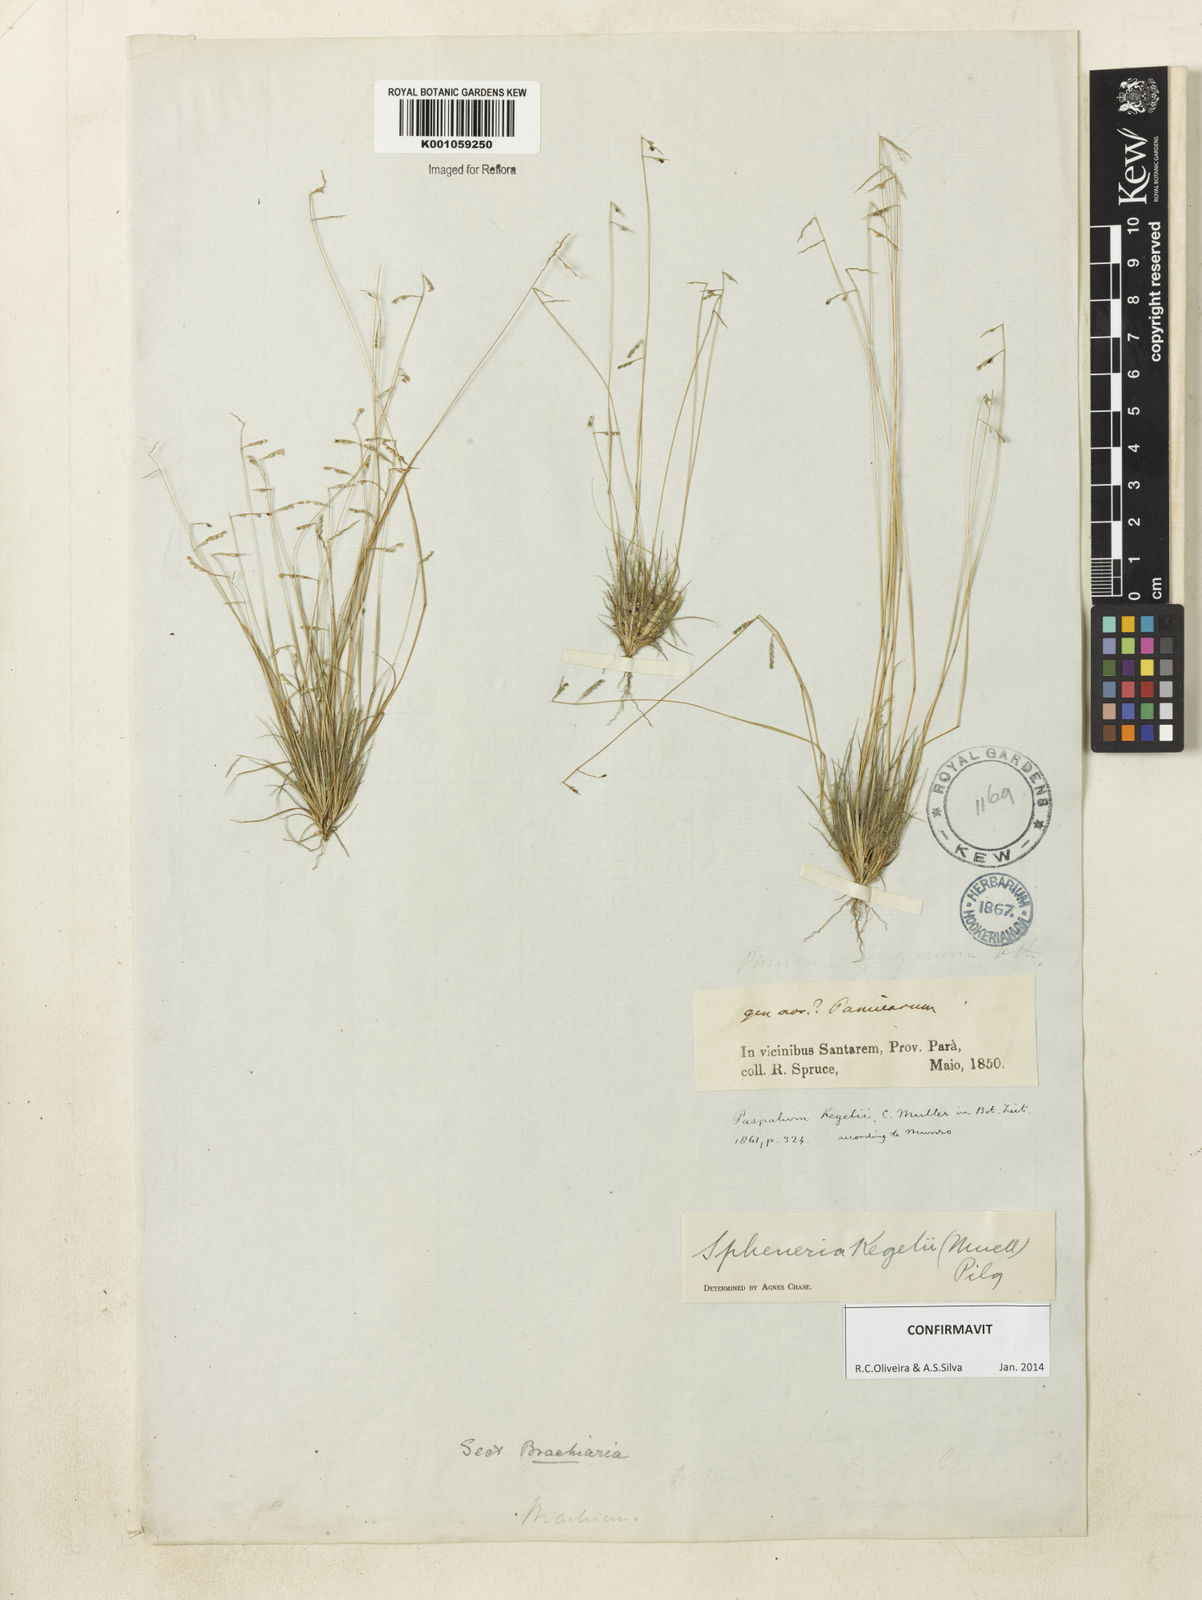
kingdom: Plantae
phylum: Tracheophyta
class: Liliopsida
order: Poales
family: Poaceae
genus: Spheneria
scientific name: Spheneria
